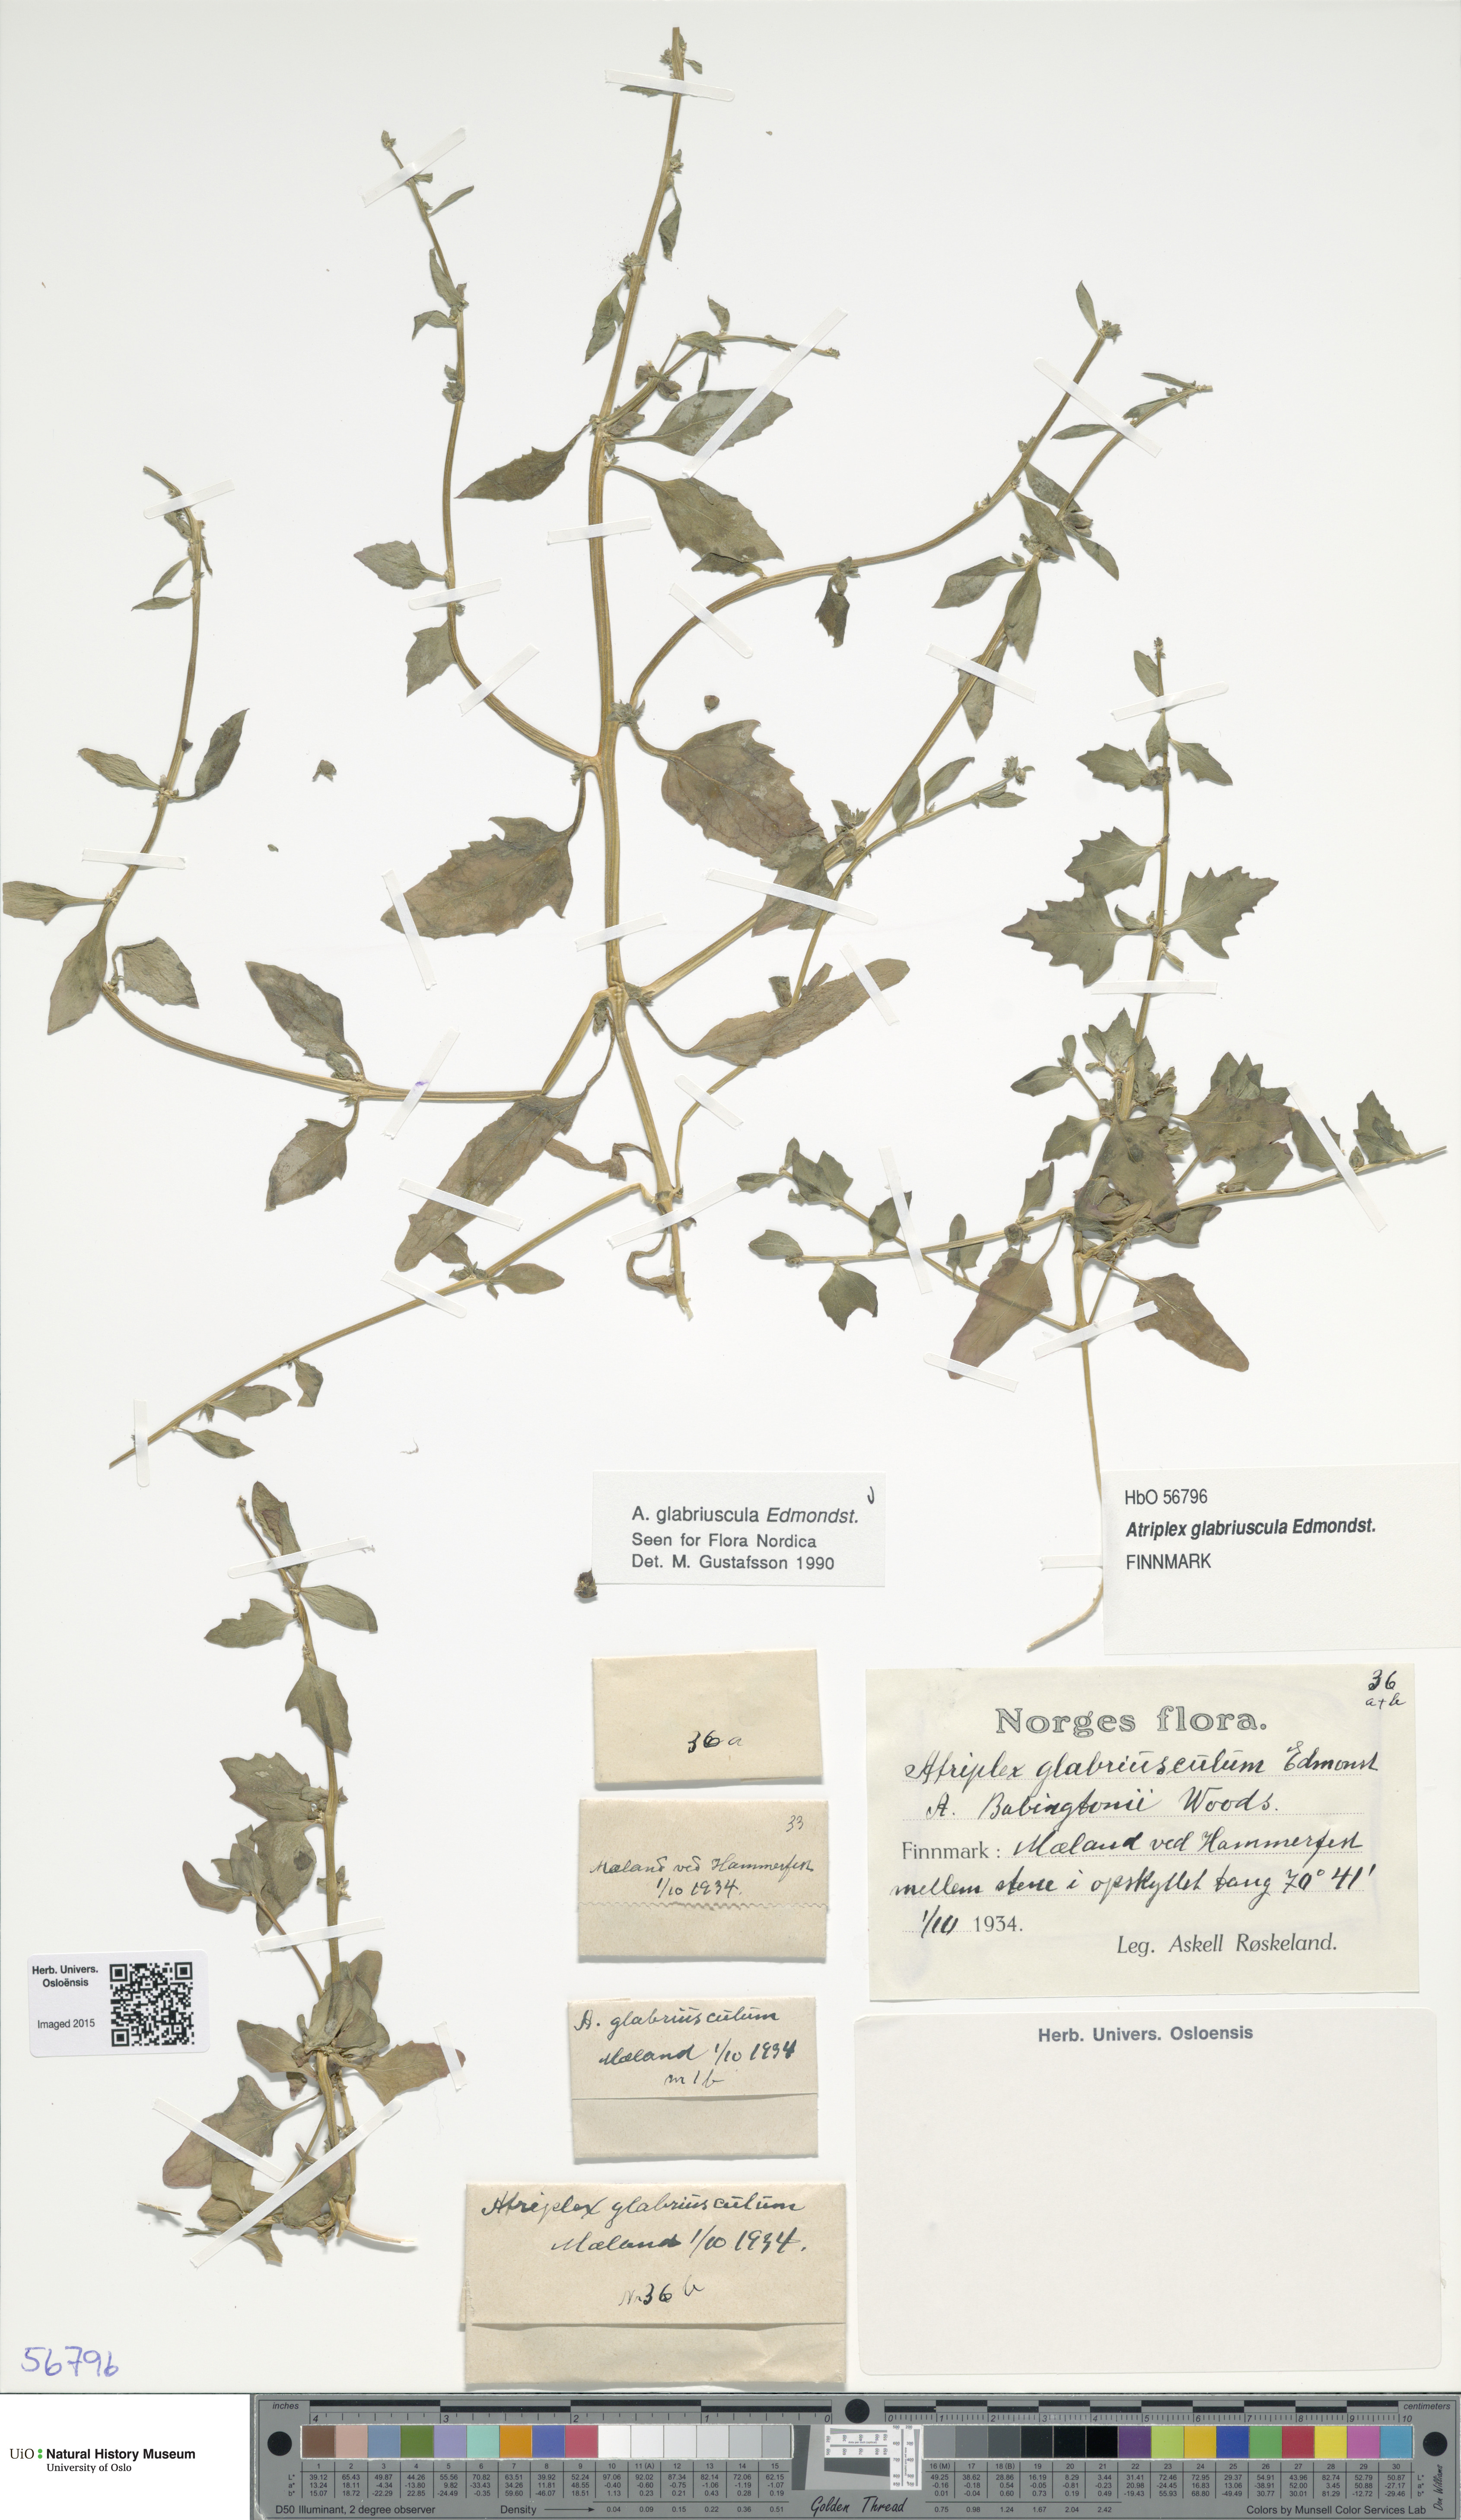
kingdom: Plantae
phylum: Tracheophyta
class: Magnoliopsida
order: Caryophyllales
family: Amaranthaceae
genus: Atriplex
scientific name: Atriplex glabriuscula
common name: Babington's orache
